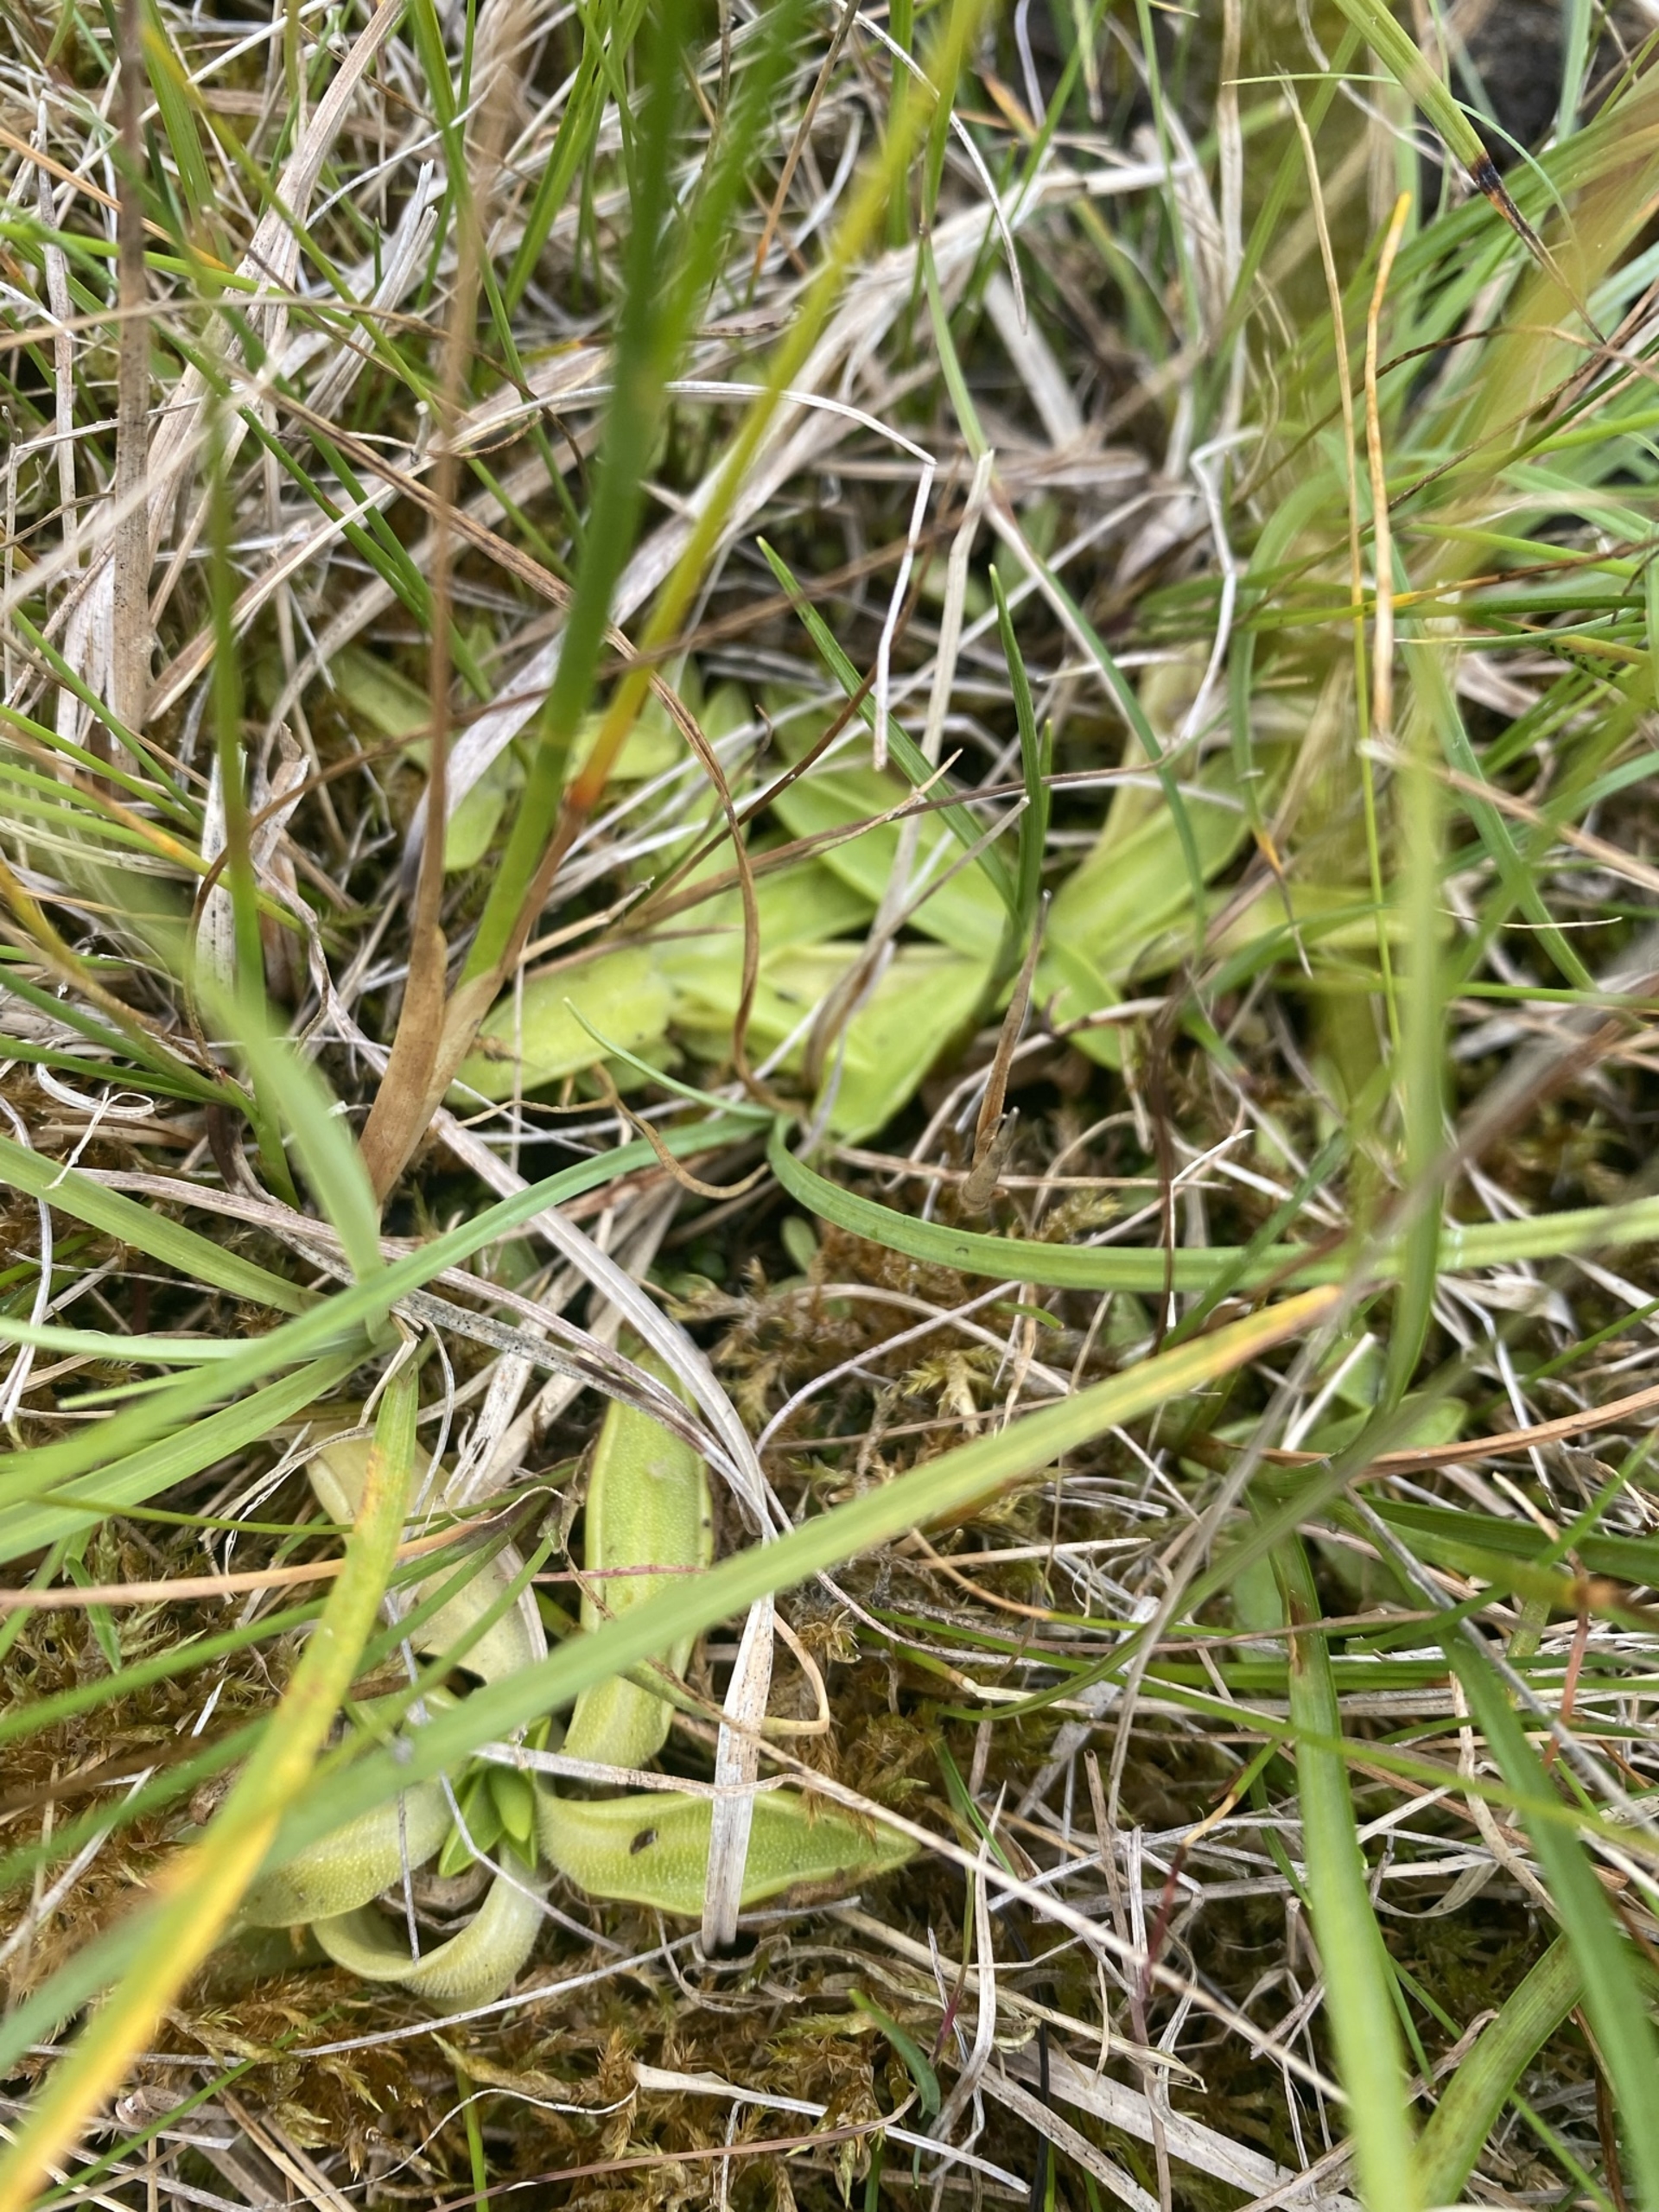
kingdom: Plantae
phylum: Tracheophyta
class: Magnoliopsida
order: Lamiales
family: Lentibulariaceae
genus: Pinguicula
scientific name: Pinguicula vulgaris
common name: Vibefedt
